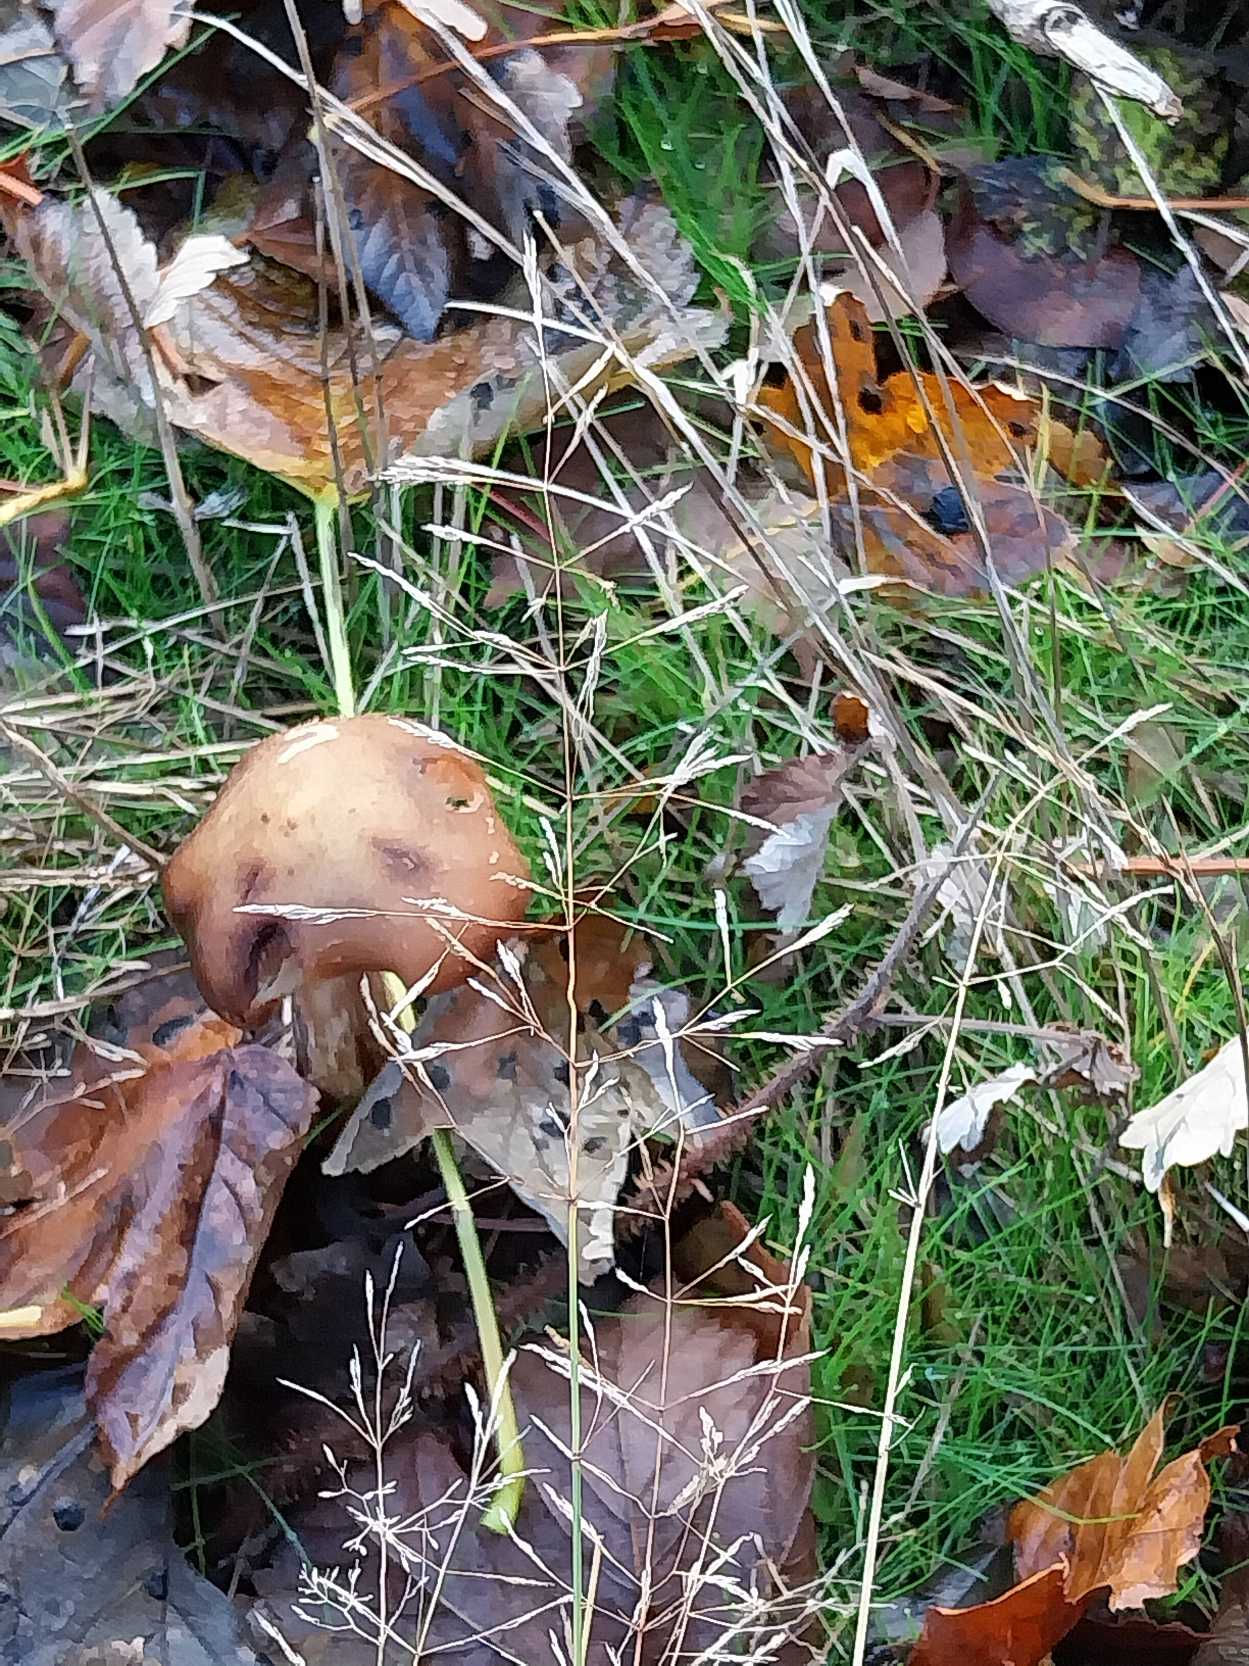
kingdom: Plantae
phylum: Tracheophyta
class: Liliopsida
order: Poales
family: Poaceae
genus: Agrostis
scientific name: Agrostis capillaris
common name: Almindelig hvene
